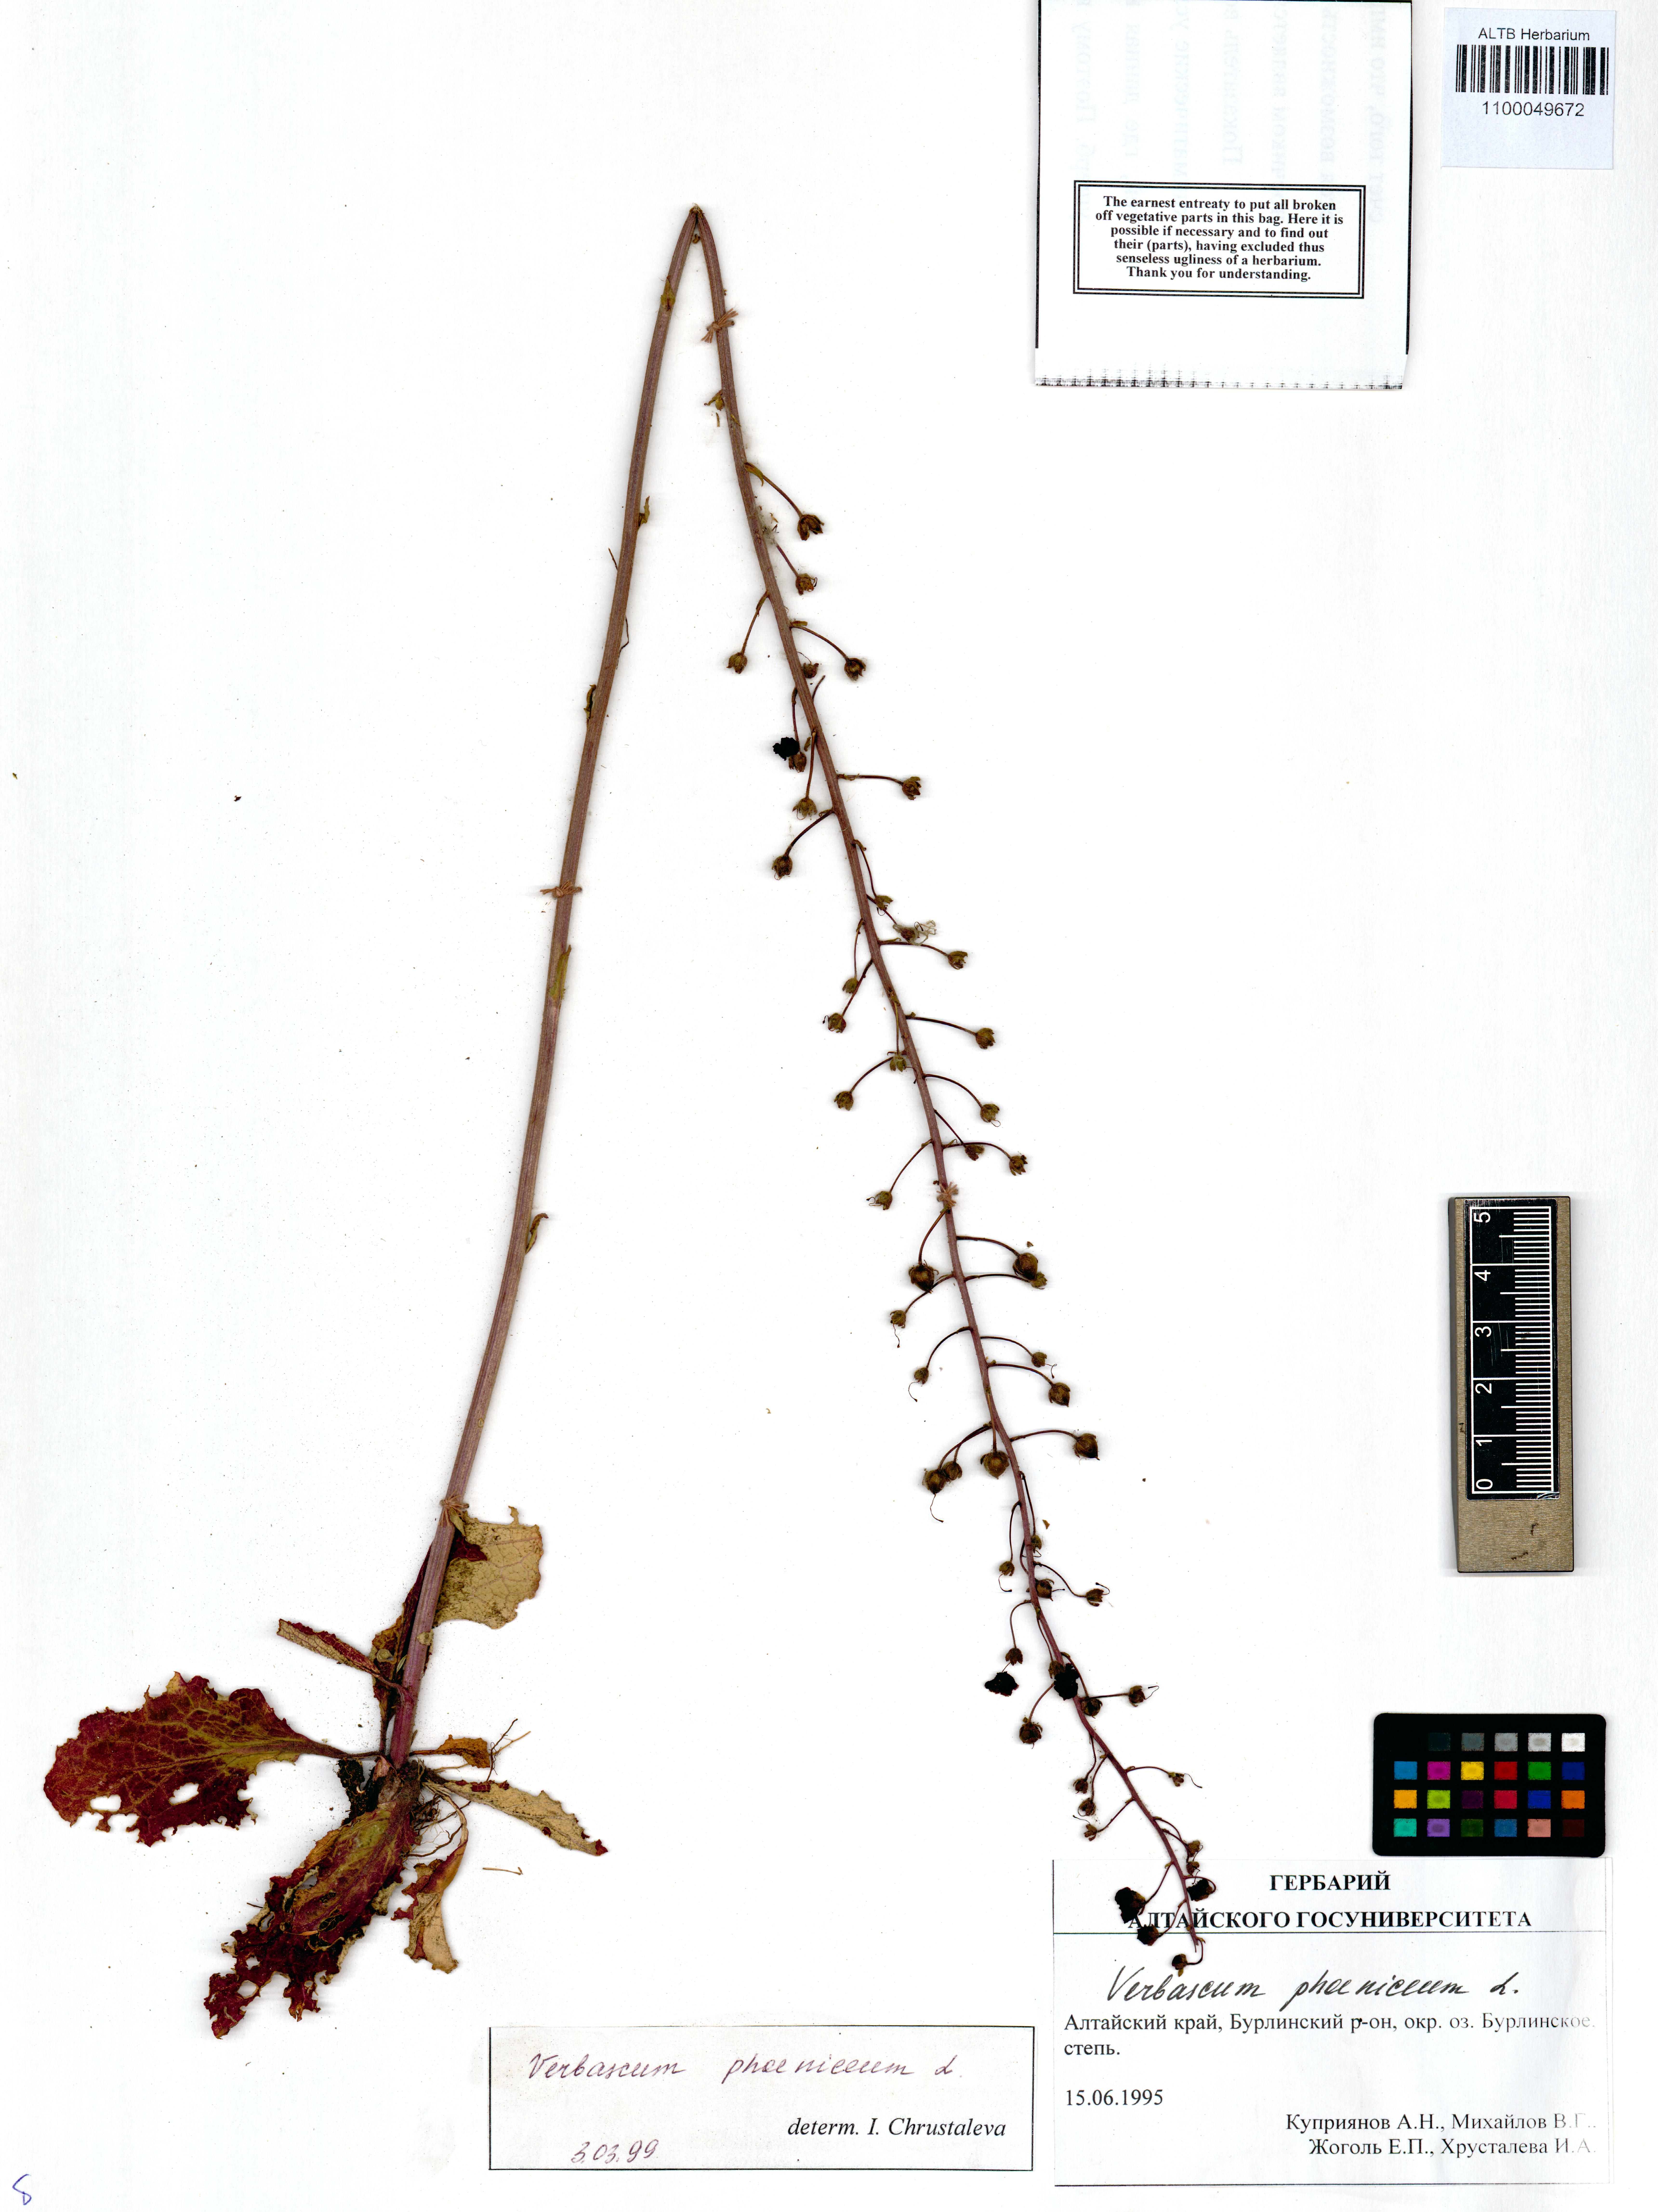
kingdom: Plantae
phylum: Tracheophyta
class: Magnoliopsida
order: Lamiales
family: Scrophulariaceae
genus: Verbascum
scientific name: Verbascum phoeniceum
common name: Purple mullein
